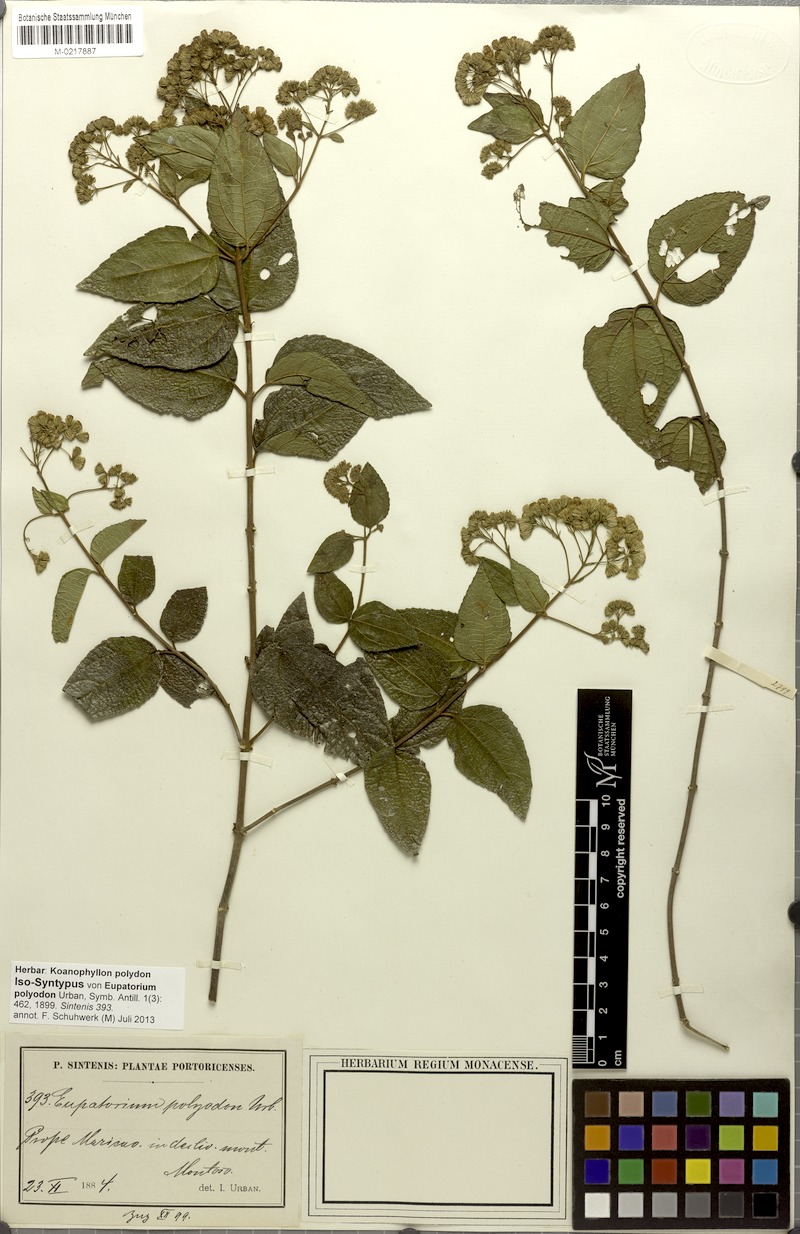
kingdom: Plantae
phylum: Tracheophyta
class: Magnoliopsida
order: Asterales
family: Asteraceae
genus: Koanophyllon
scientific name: Koanophyllon polyodon
